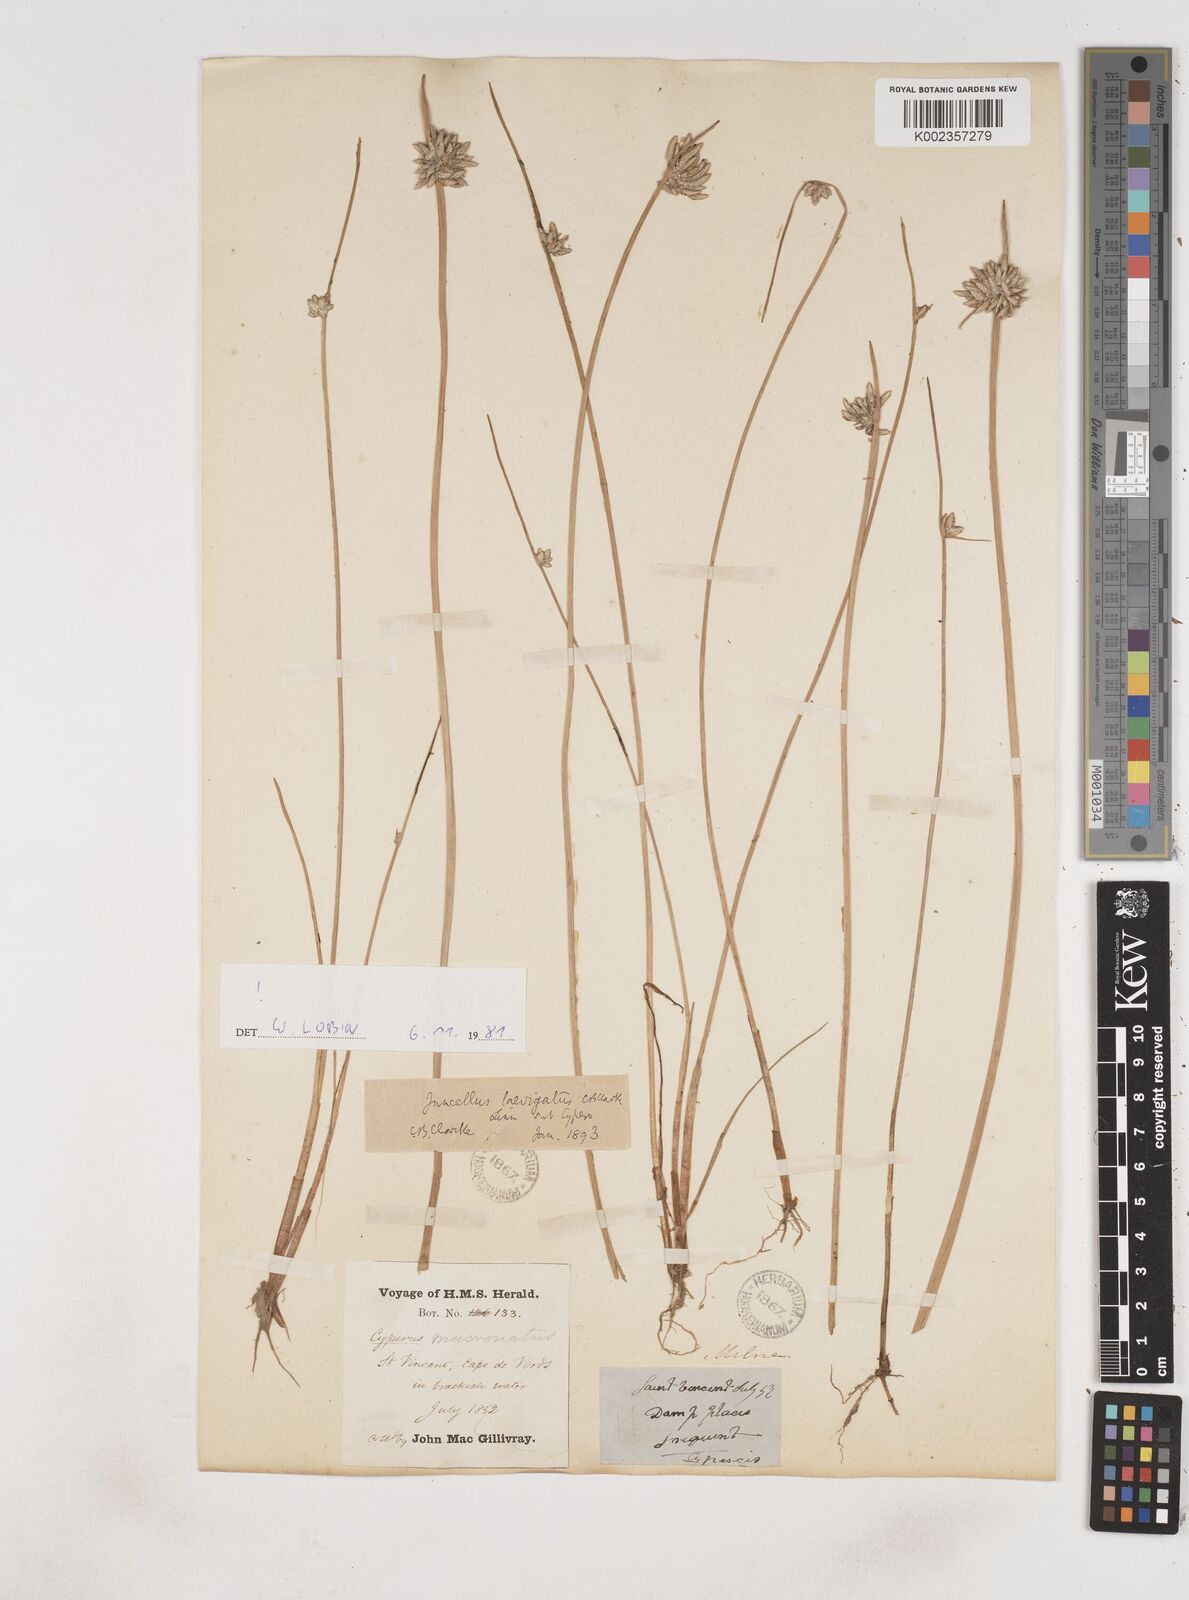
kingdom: Plantae
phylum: Tracheophyta
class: Liliopsida
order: Poales
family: Cyperaceae
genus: Cyperus
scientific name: Cyperus laevigatus
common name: Smooth flat sedge
